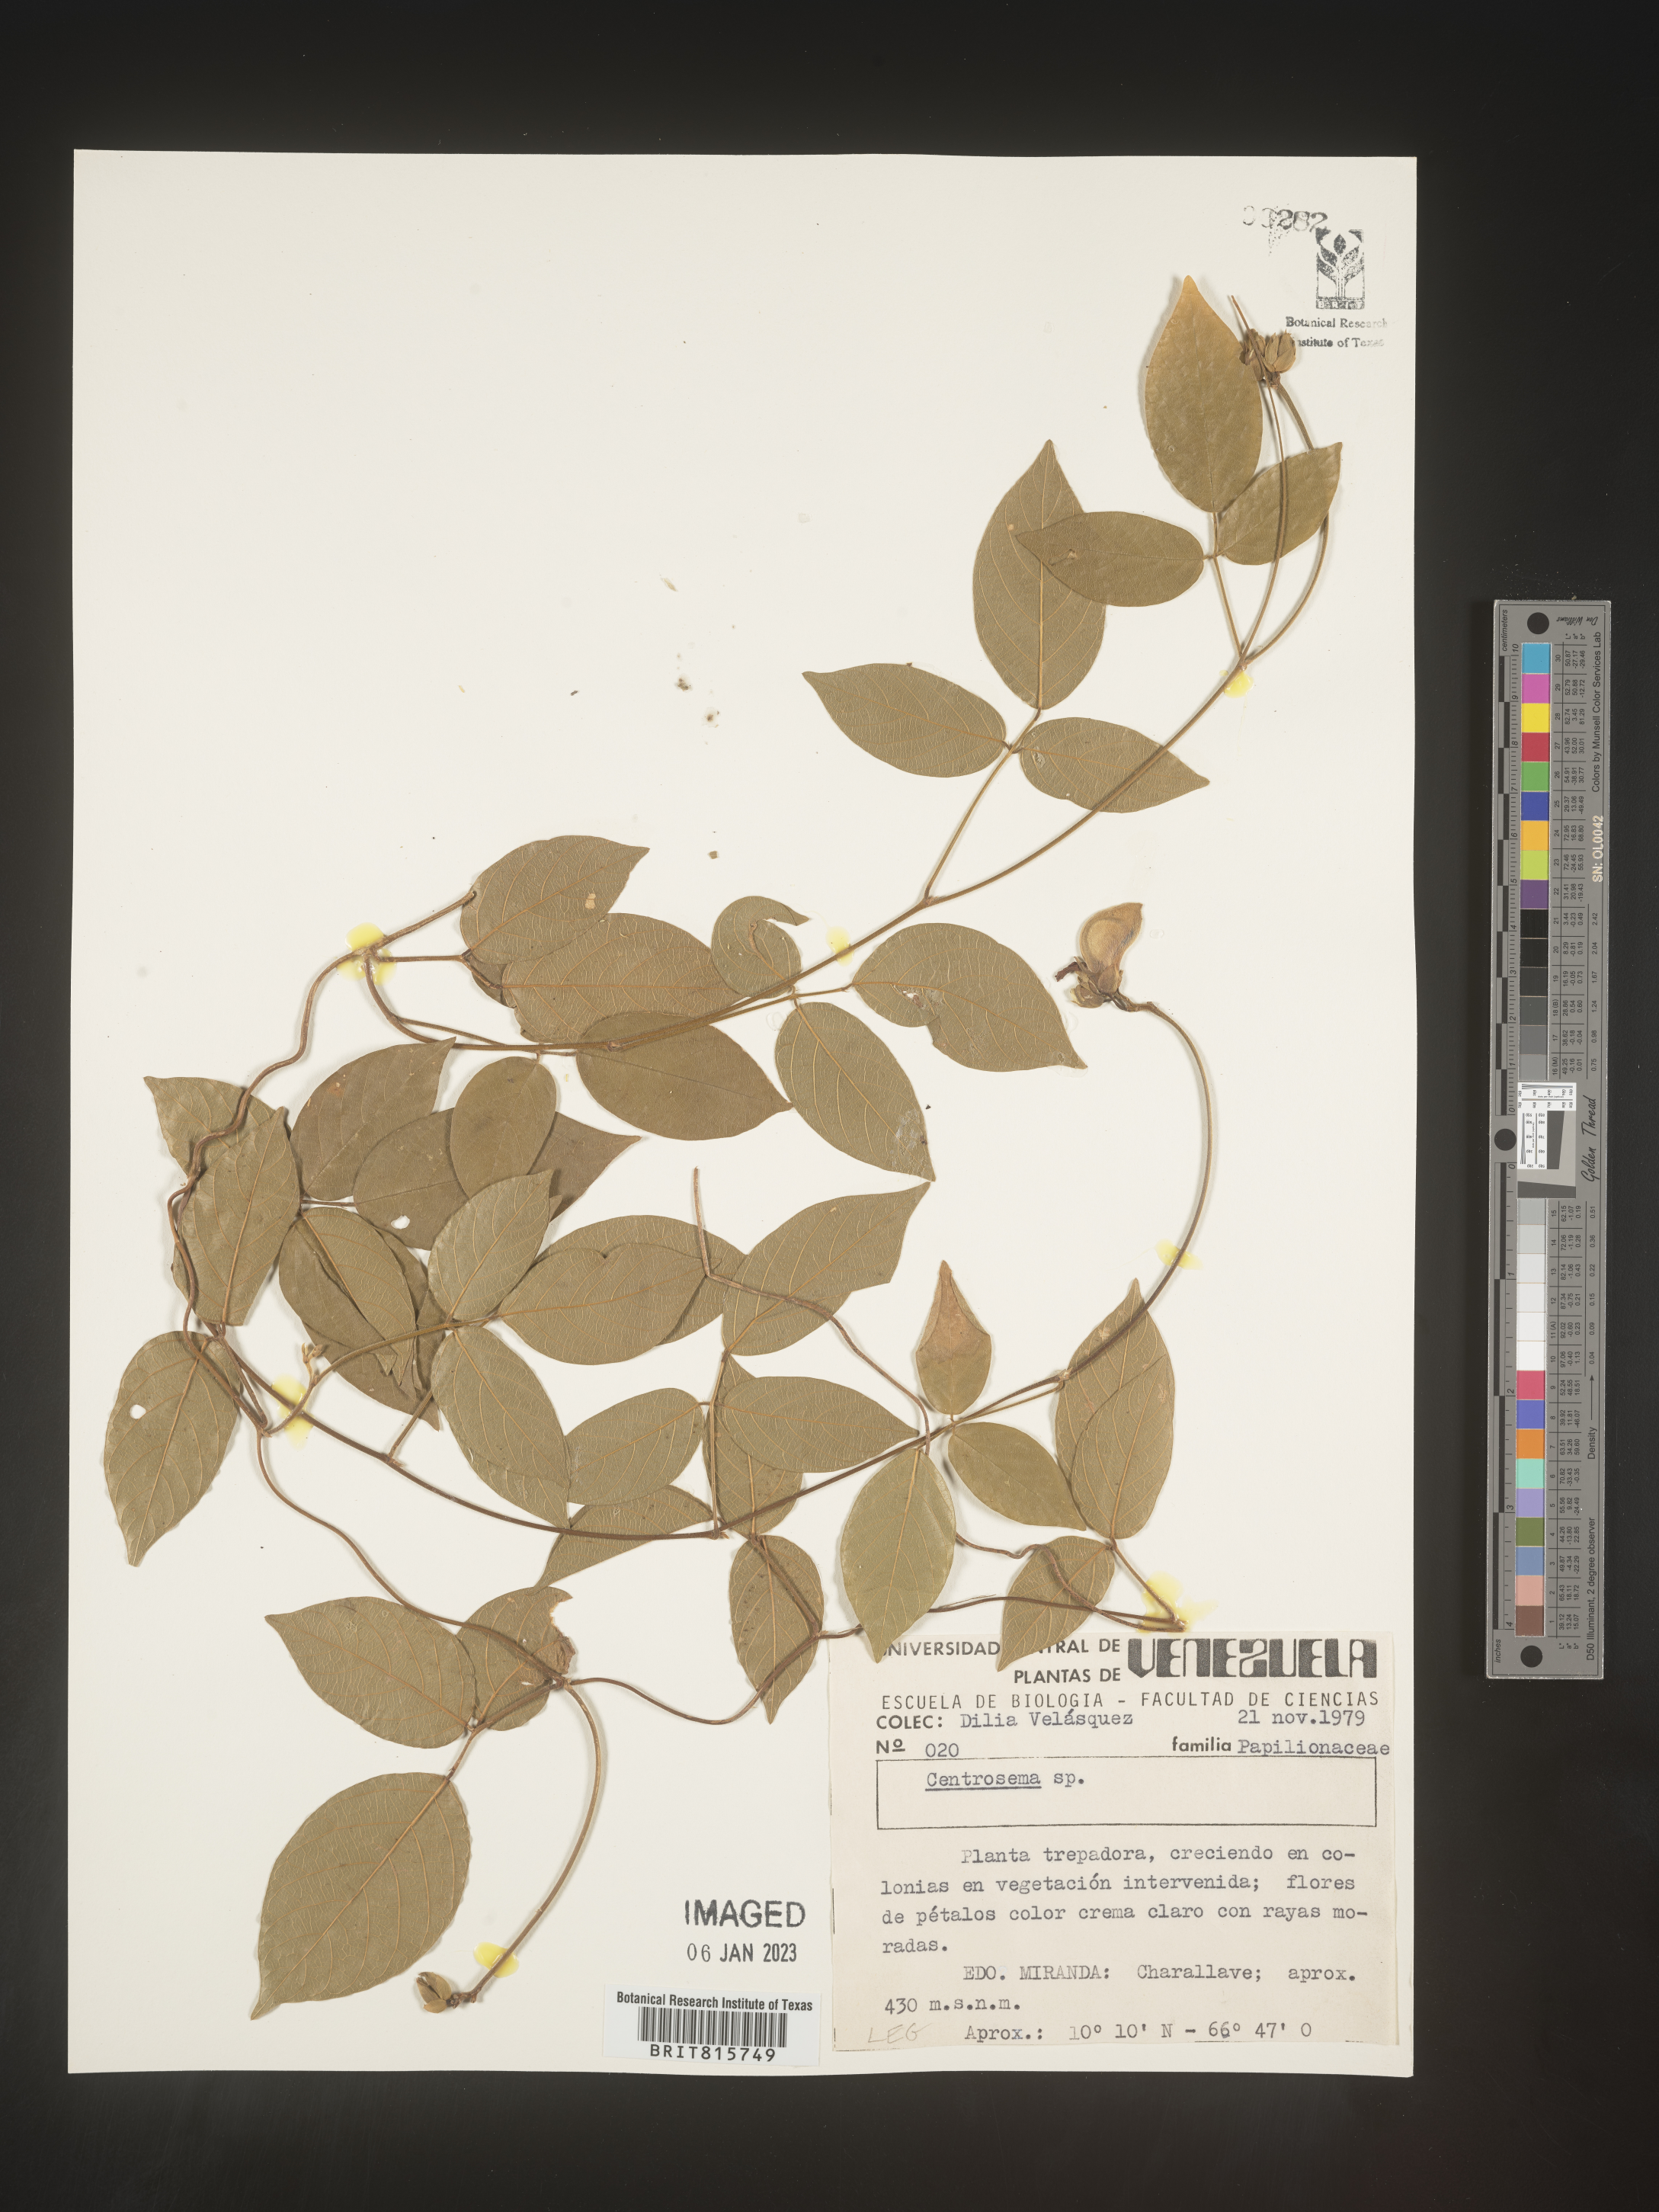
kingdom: Plantae
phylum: Tracheophyta
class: Magnoliopsida
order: Fabales
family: Fabaceae
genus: Centrosema
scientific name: Centrosema
